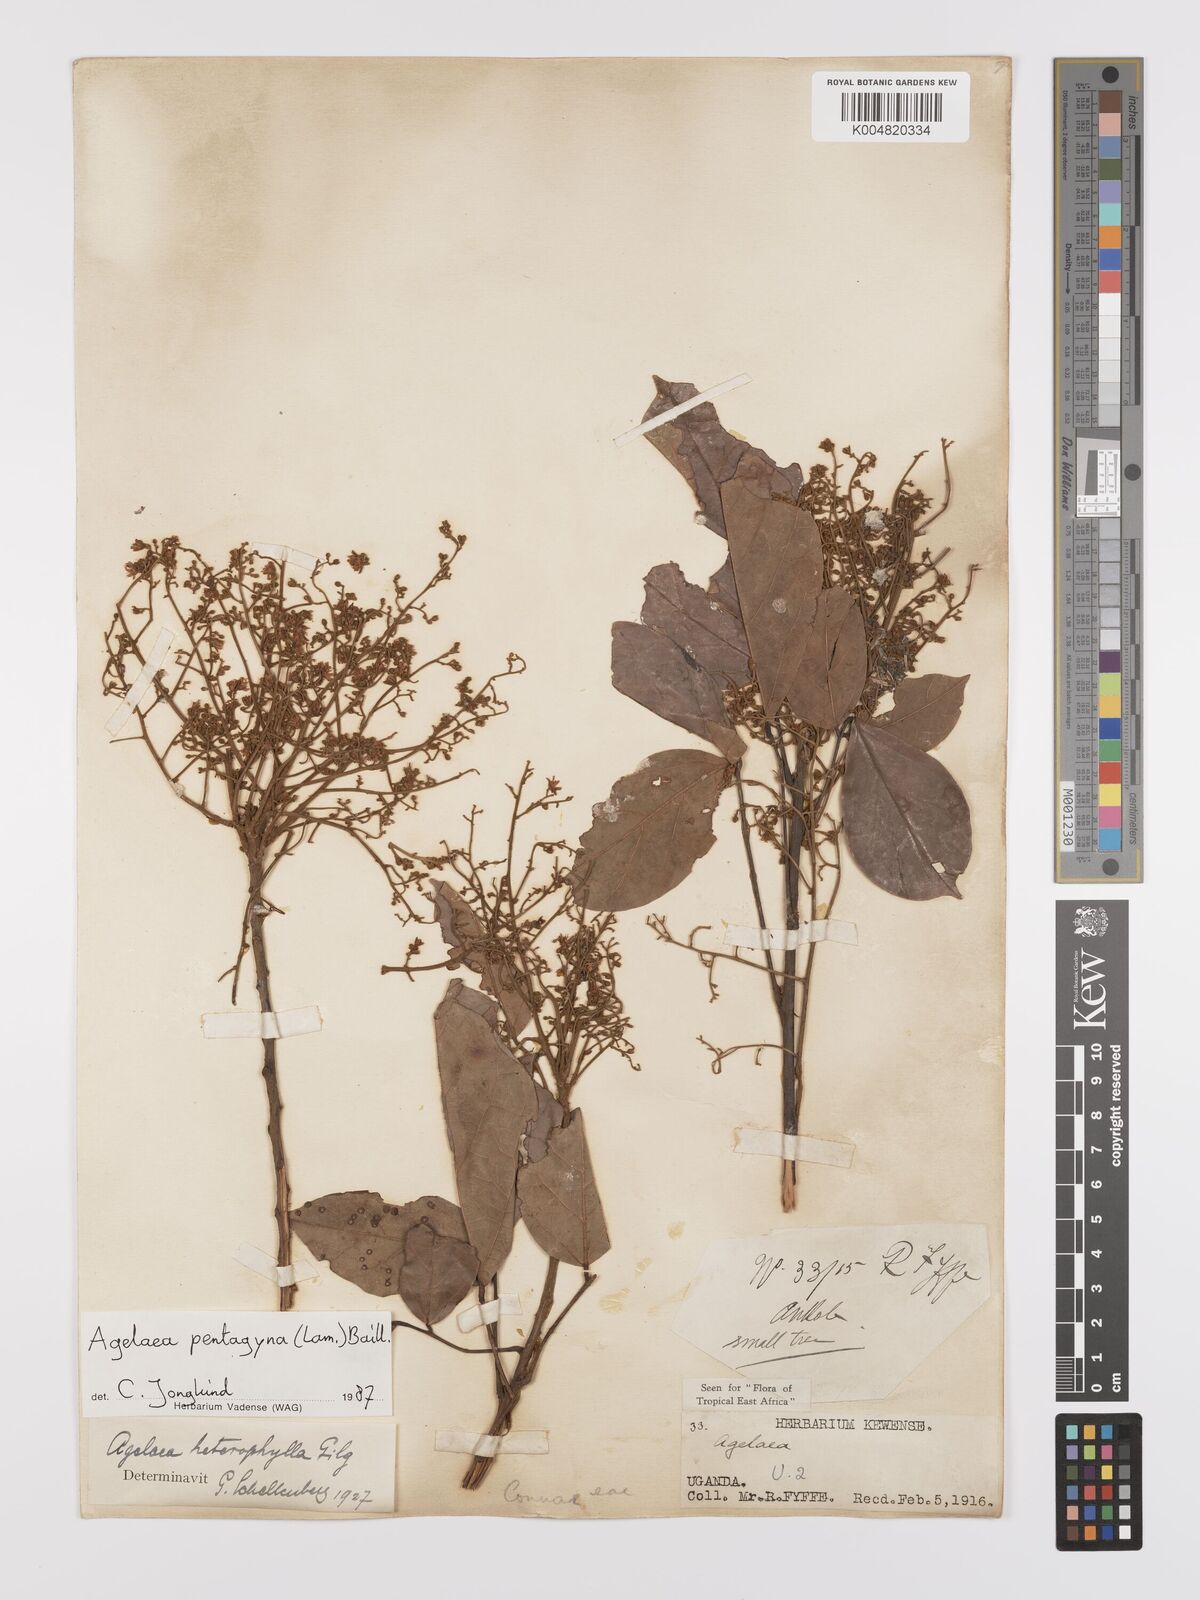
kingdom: Plantae
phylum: Tracheophyta
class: Magnoliopsida
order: Oxalidales
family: Connaraceae
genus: Agelaea
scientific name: Agelaea pentagyna
